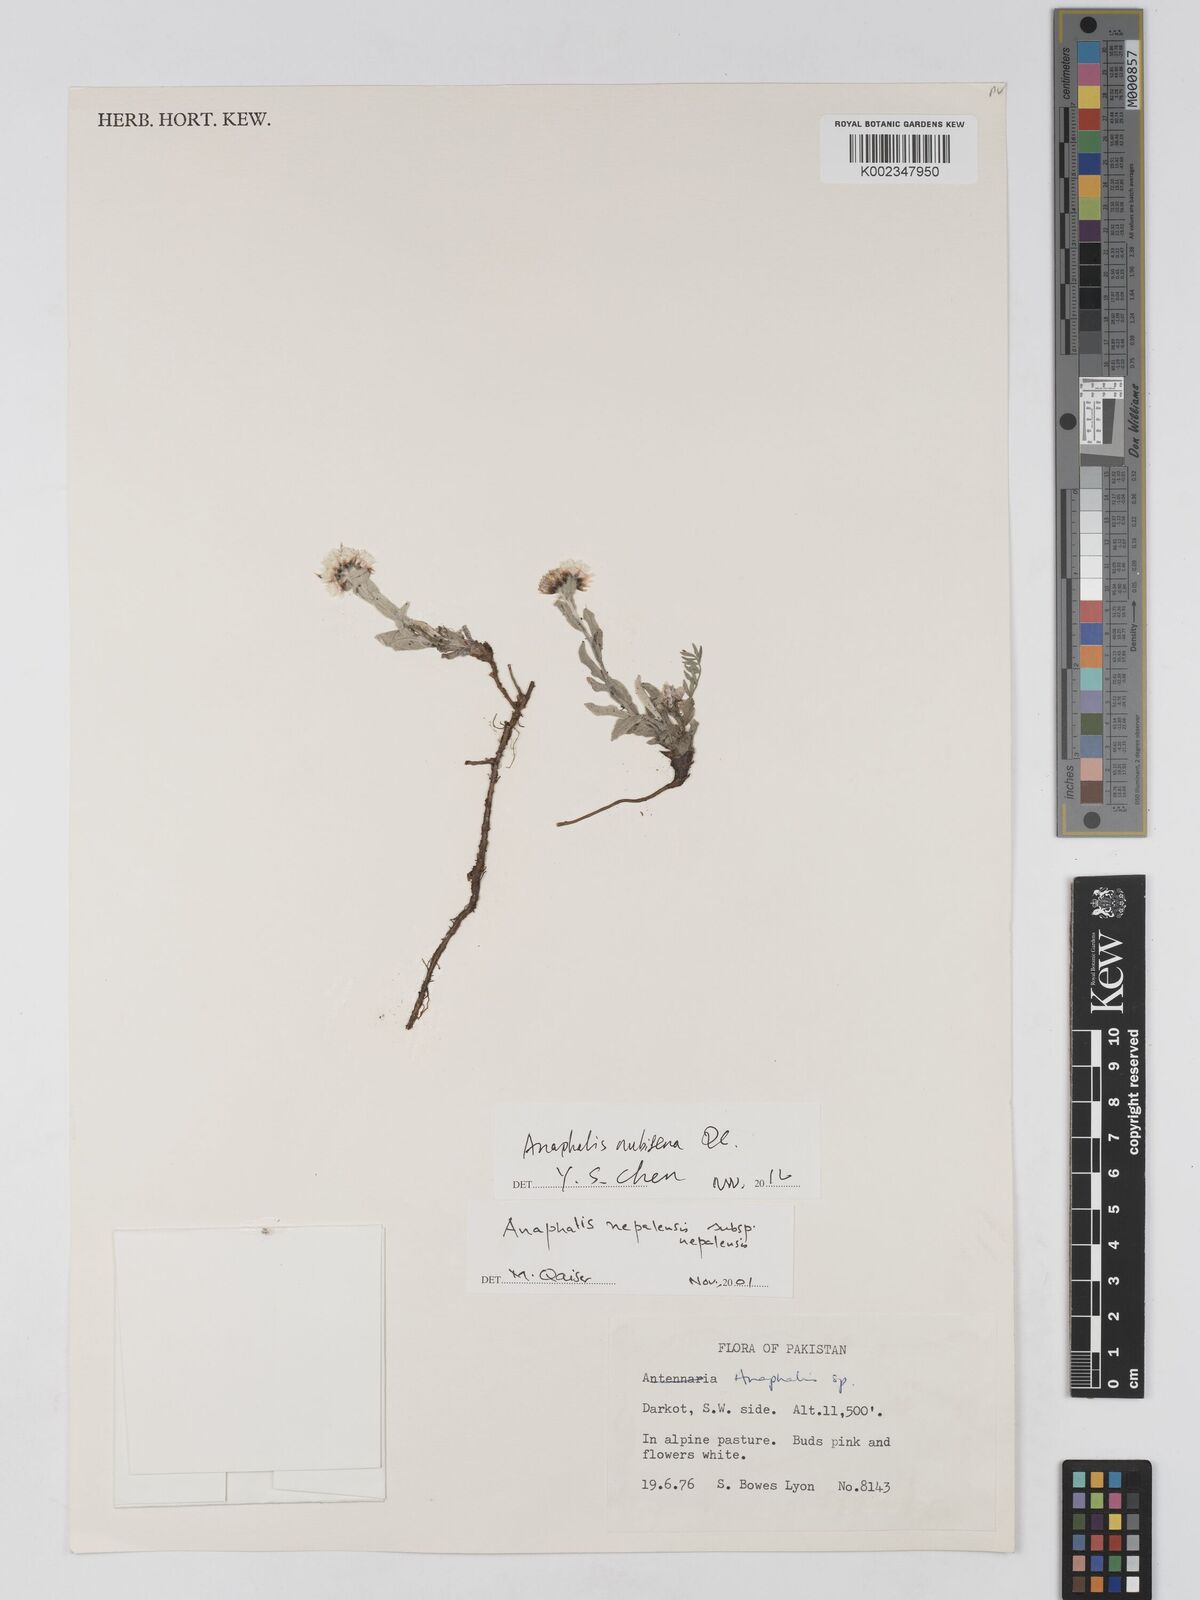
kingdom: Plantae
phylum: Tracheophyta
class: Magnoliopsida
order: Asterales
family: Asteraceae
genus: Anaphalis
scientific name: Anaphalis
